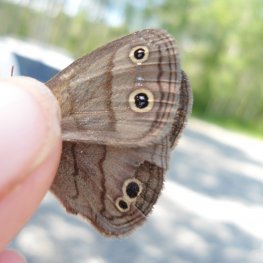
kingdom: Animalia
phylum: Arthropoda
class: Insecta
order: Lepidoptera
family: Nymphalidae
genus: Euptychia
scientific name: Euptychia cymela
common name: Little Wood Satyr
